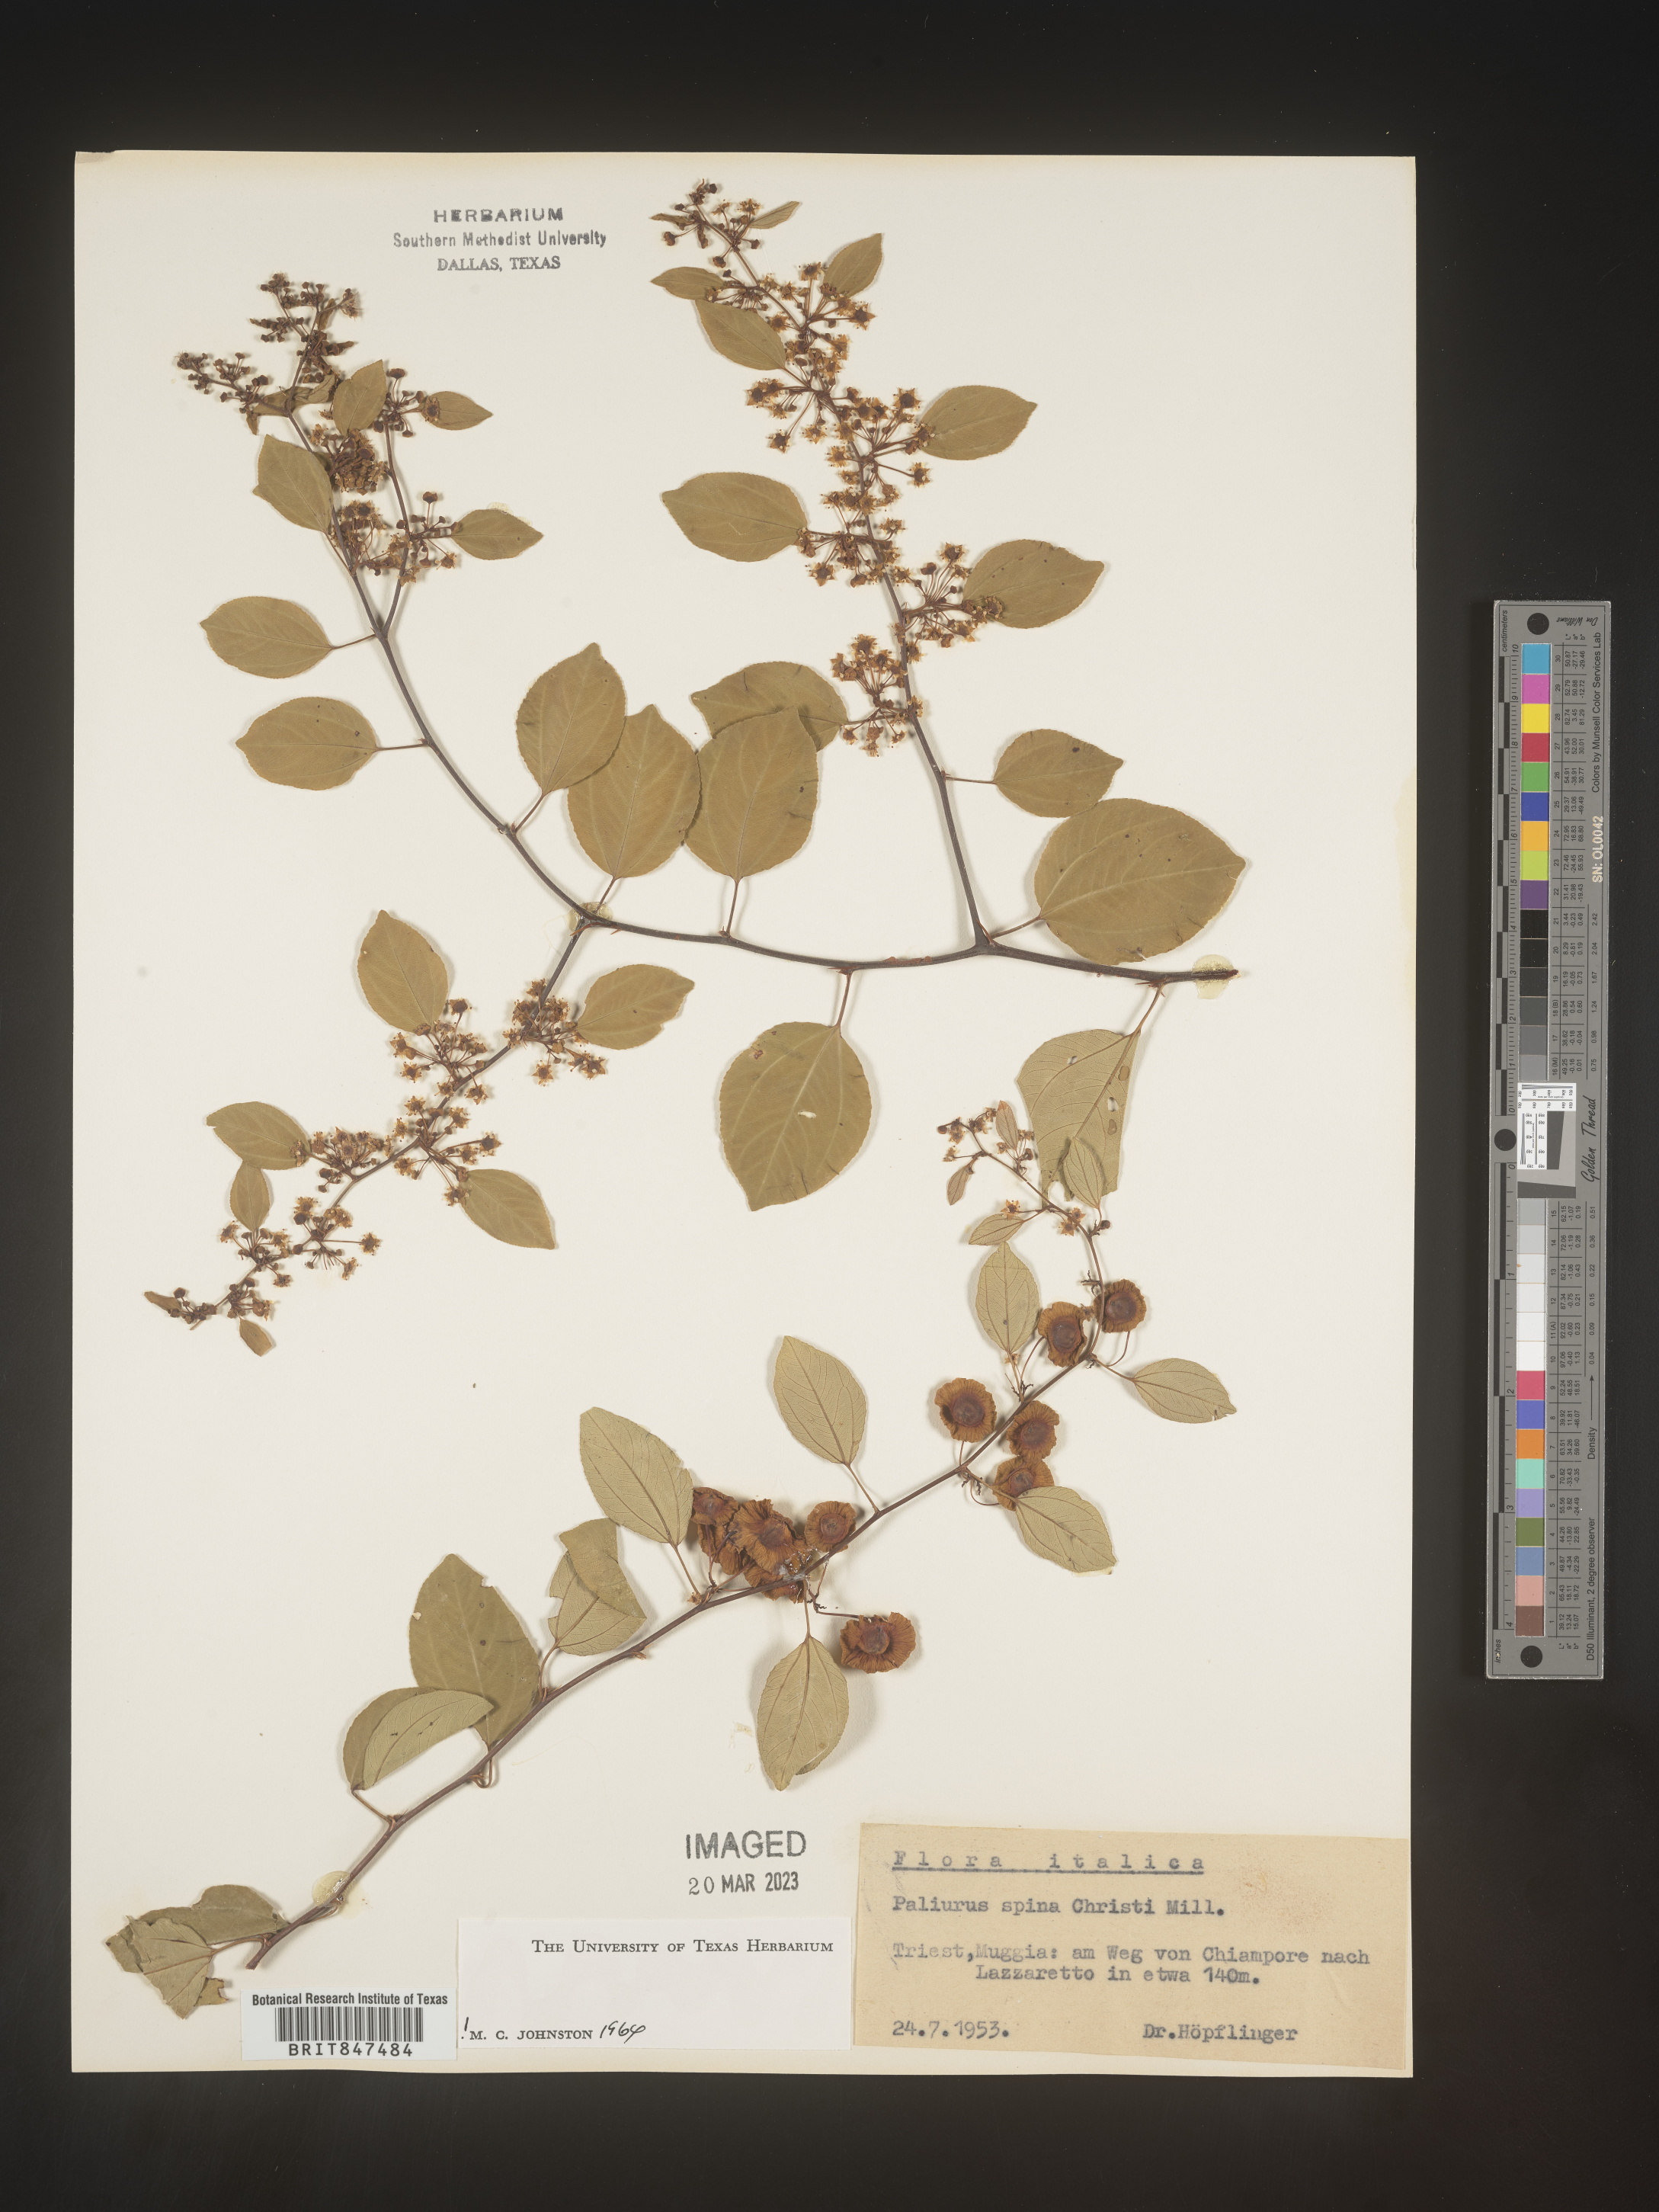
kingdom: Plantae
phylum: Tracheophyta
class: Magnoliopsida
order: Rosales
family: Rhamnaceae
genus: Paliurus
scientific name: Paliurus
